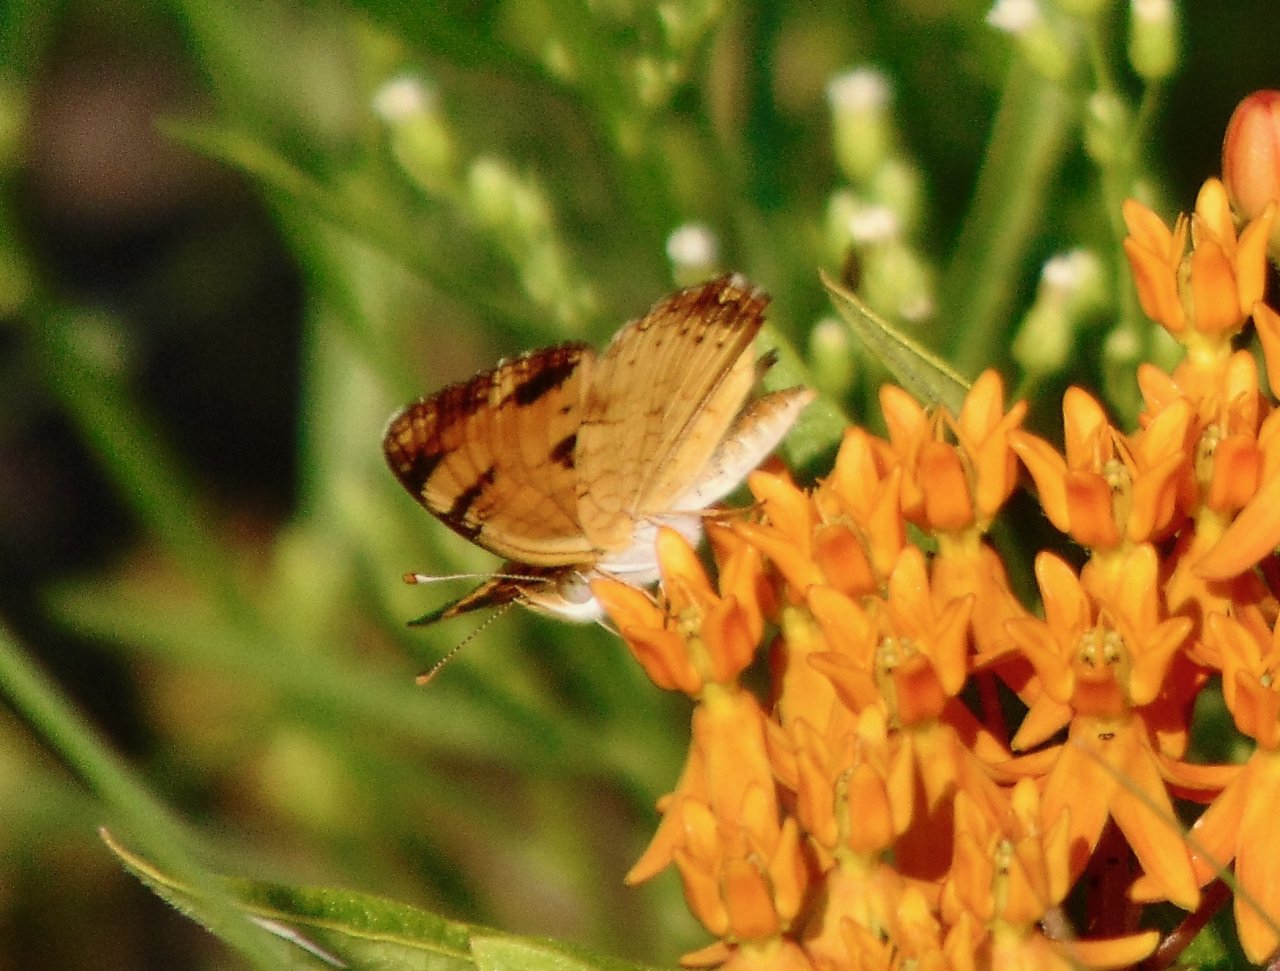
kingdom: Animalia
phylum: Arthropoda
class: Insecta
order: Lepidoptera
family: Nymphalidae
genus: Phyciodes
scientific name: Phyciodes tharos
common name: Pearl Crescent
